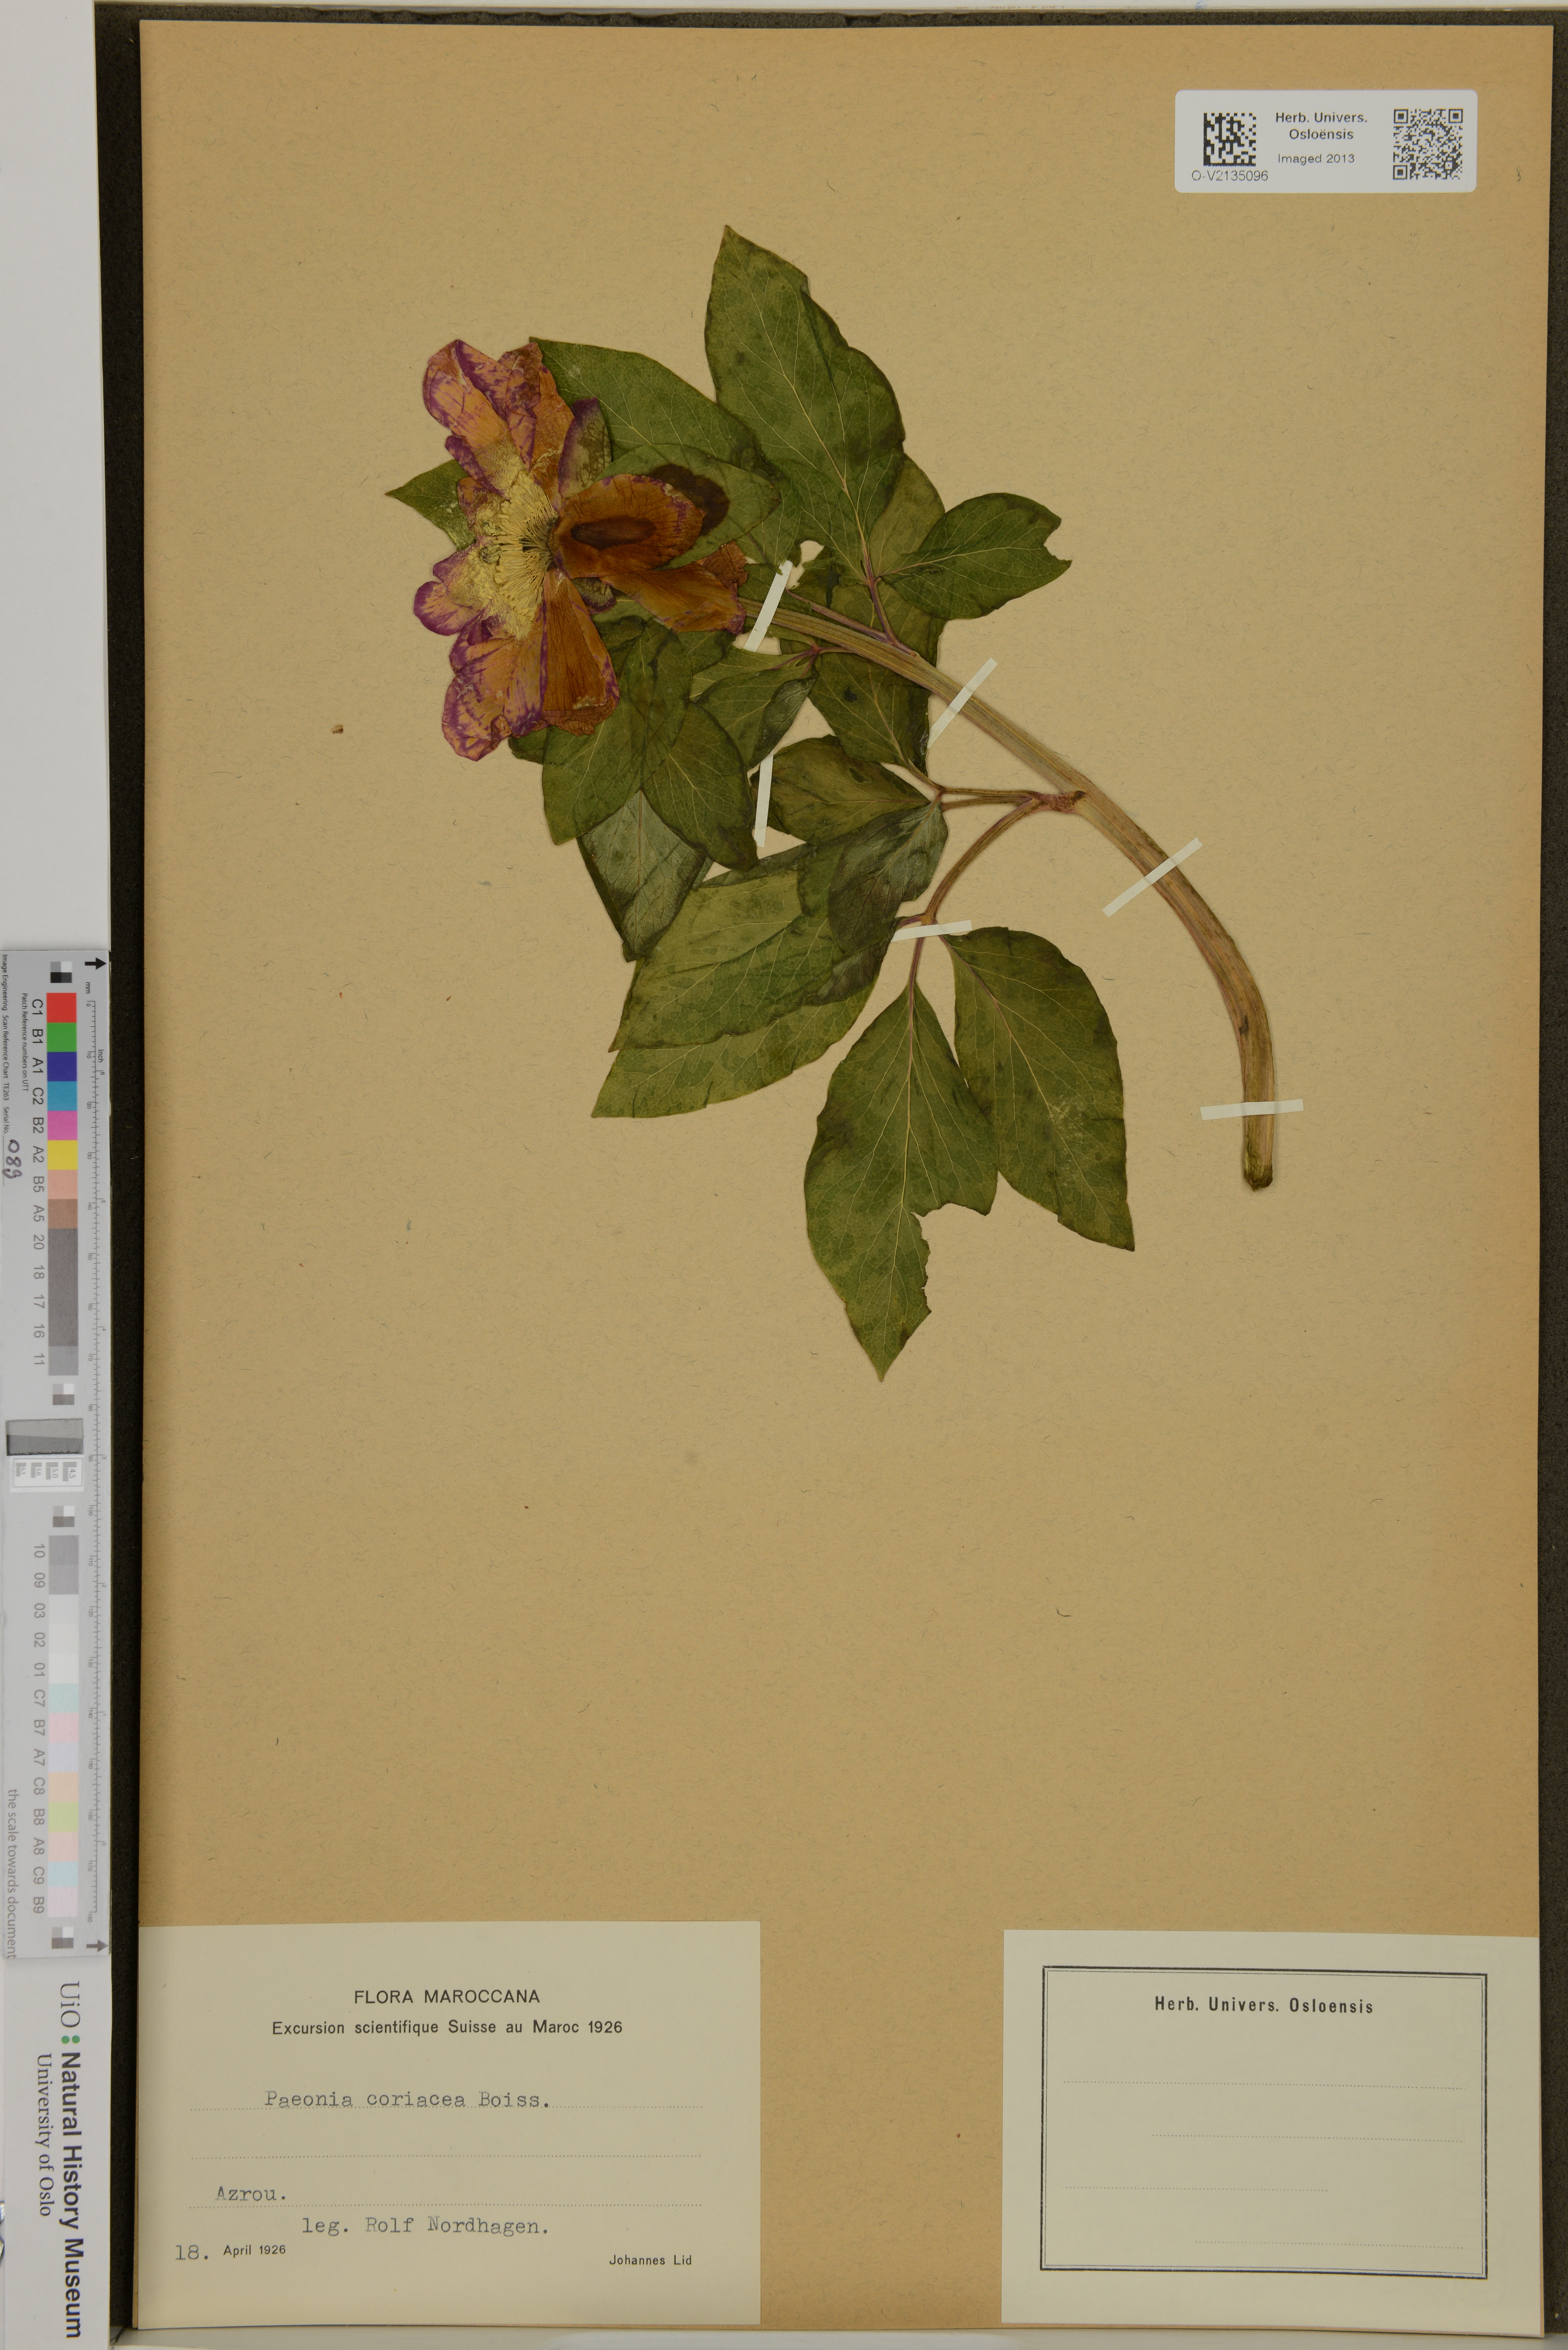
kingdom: Plantae
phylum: Tracheophyta
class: Magnoliopsida
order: Saxifragales
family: Paeoniaceae
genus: Paeonia
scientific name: Paeonia coriacea
